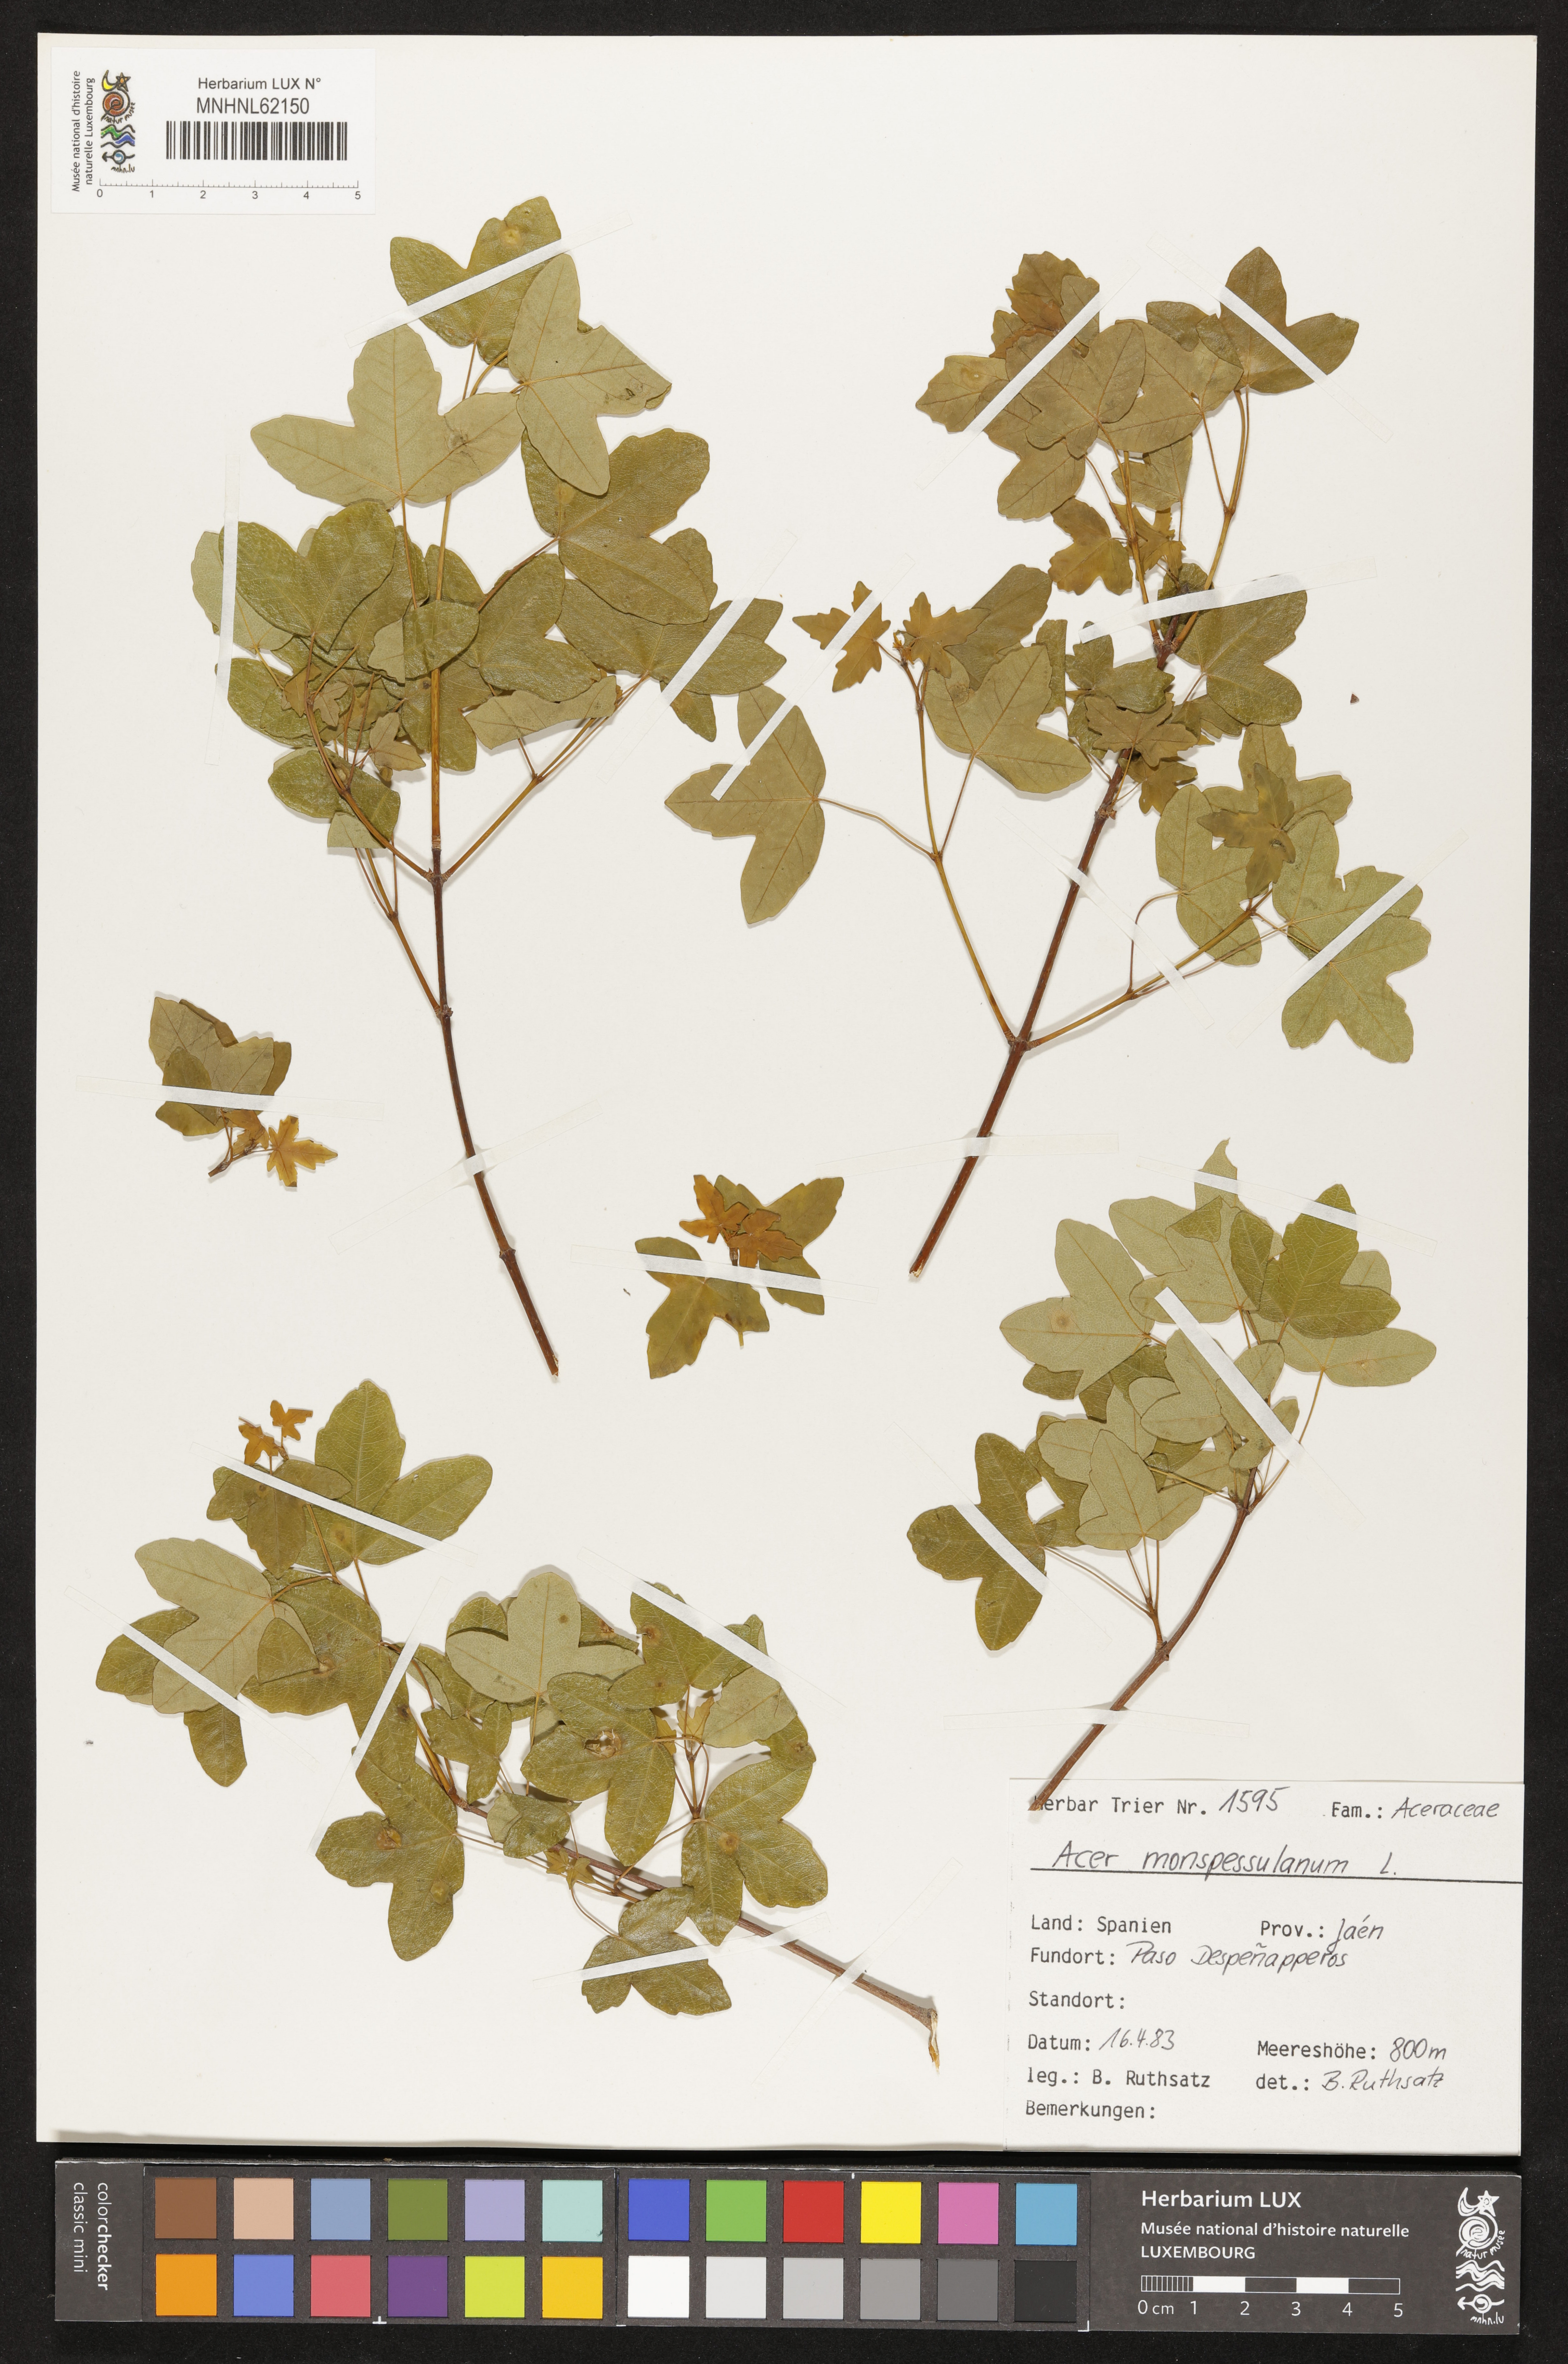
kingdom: Plantae
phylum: Tracheophyta
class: Magnoliopsida
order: Sapindales
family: Sapindaceae
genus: Acer
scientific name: Acer monspessulanum
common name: Montpellier maple
